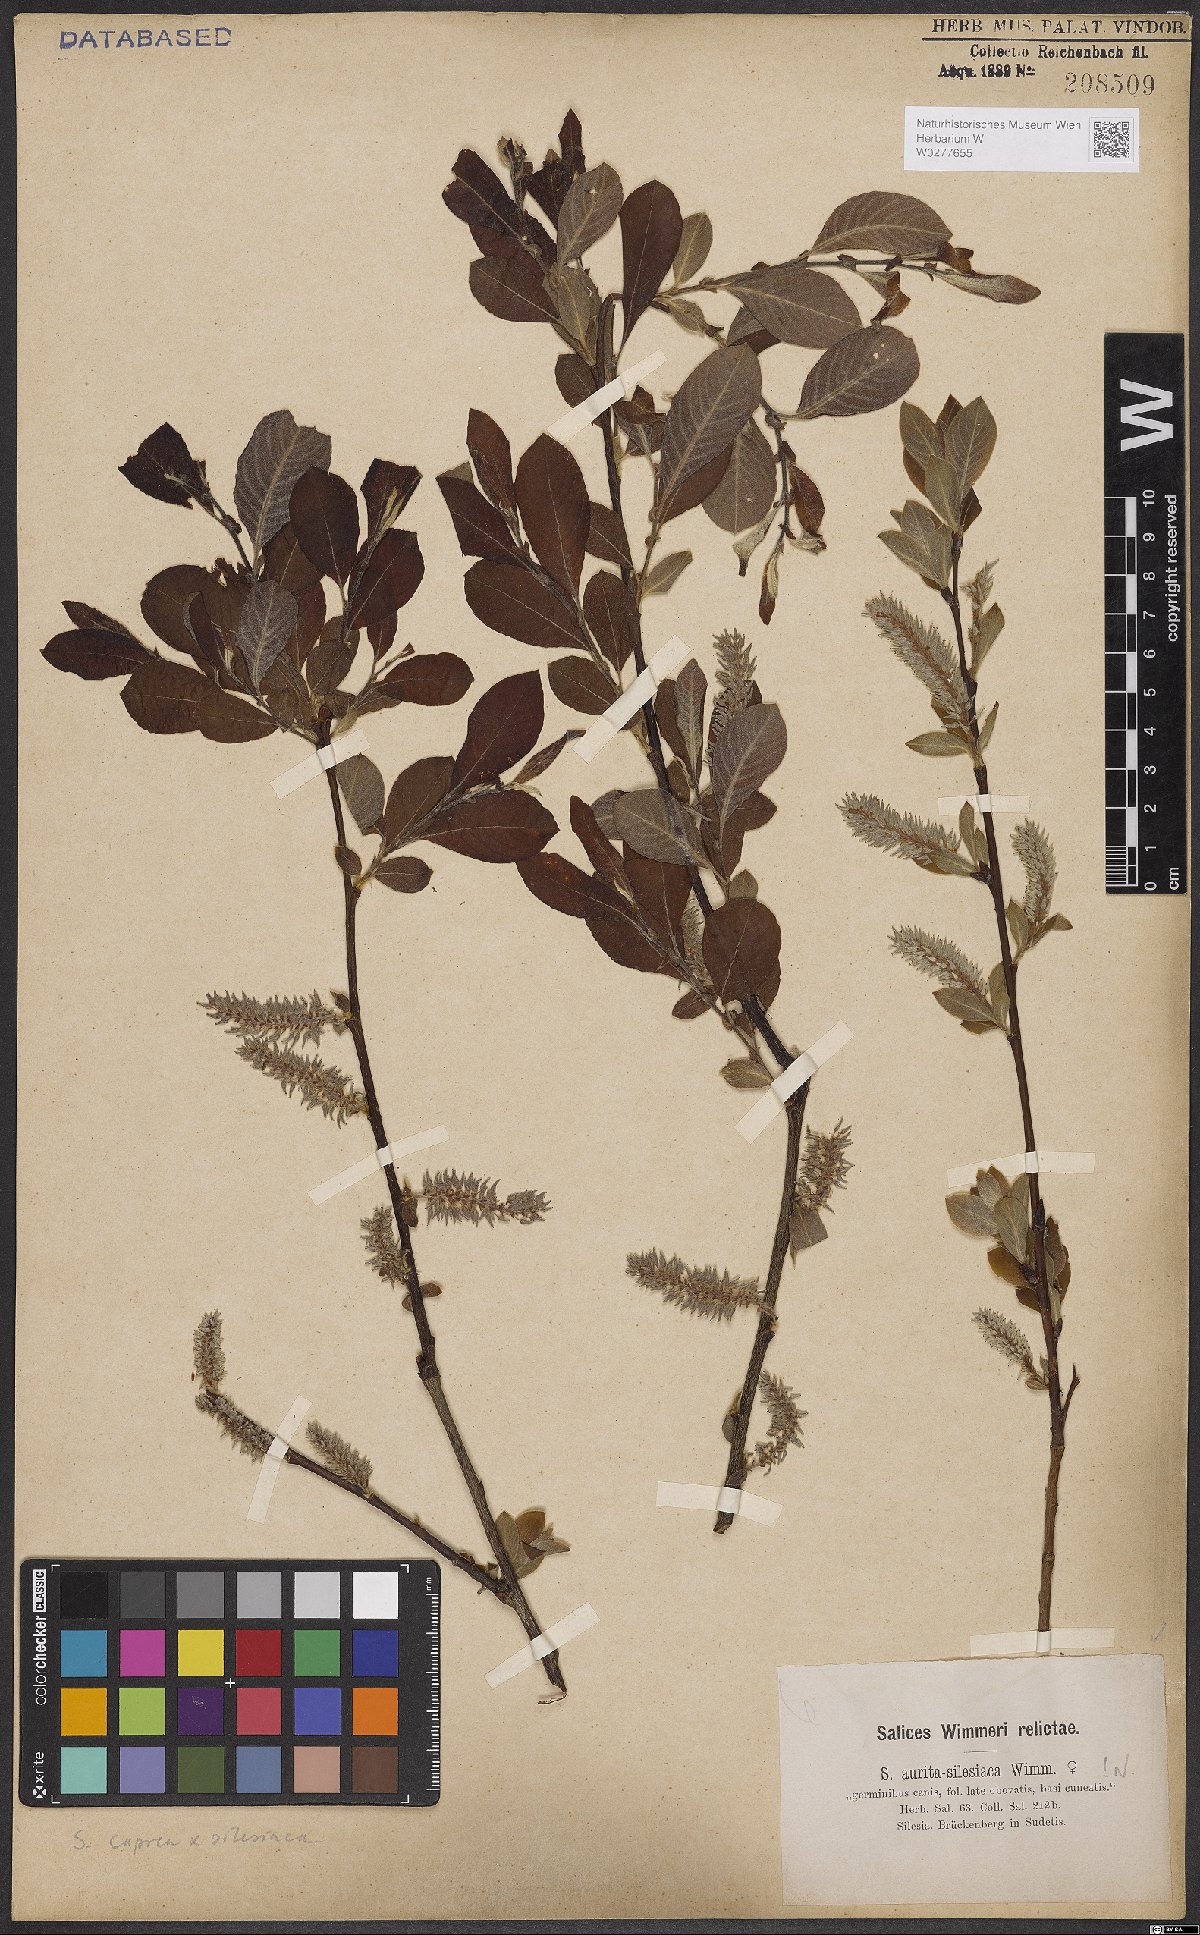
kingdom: Plantae
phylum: Tracheophyta
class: Magnoliopsida
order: Malpighiales
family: Salicaceae
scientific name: Salicaceae
